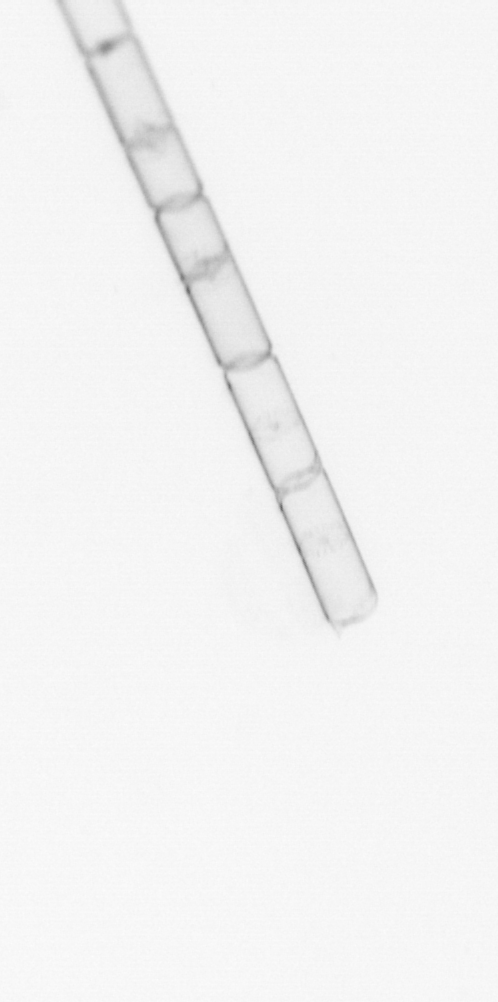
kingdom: Chromista
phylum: Ochrophyta
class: Bacillariophyceae
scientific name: Bacillariophyceae
